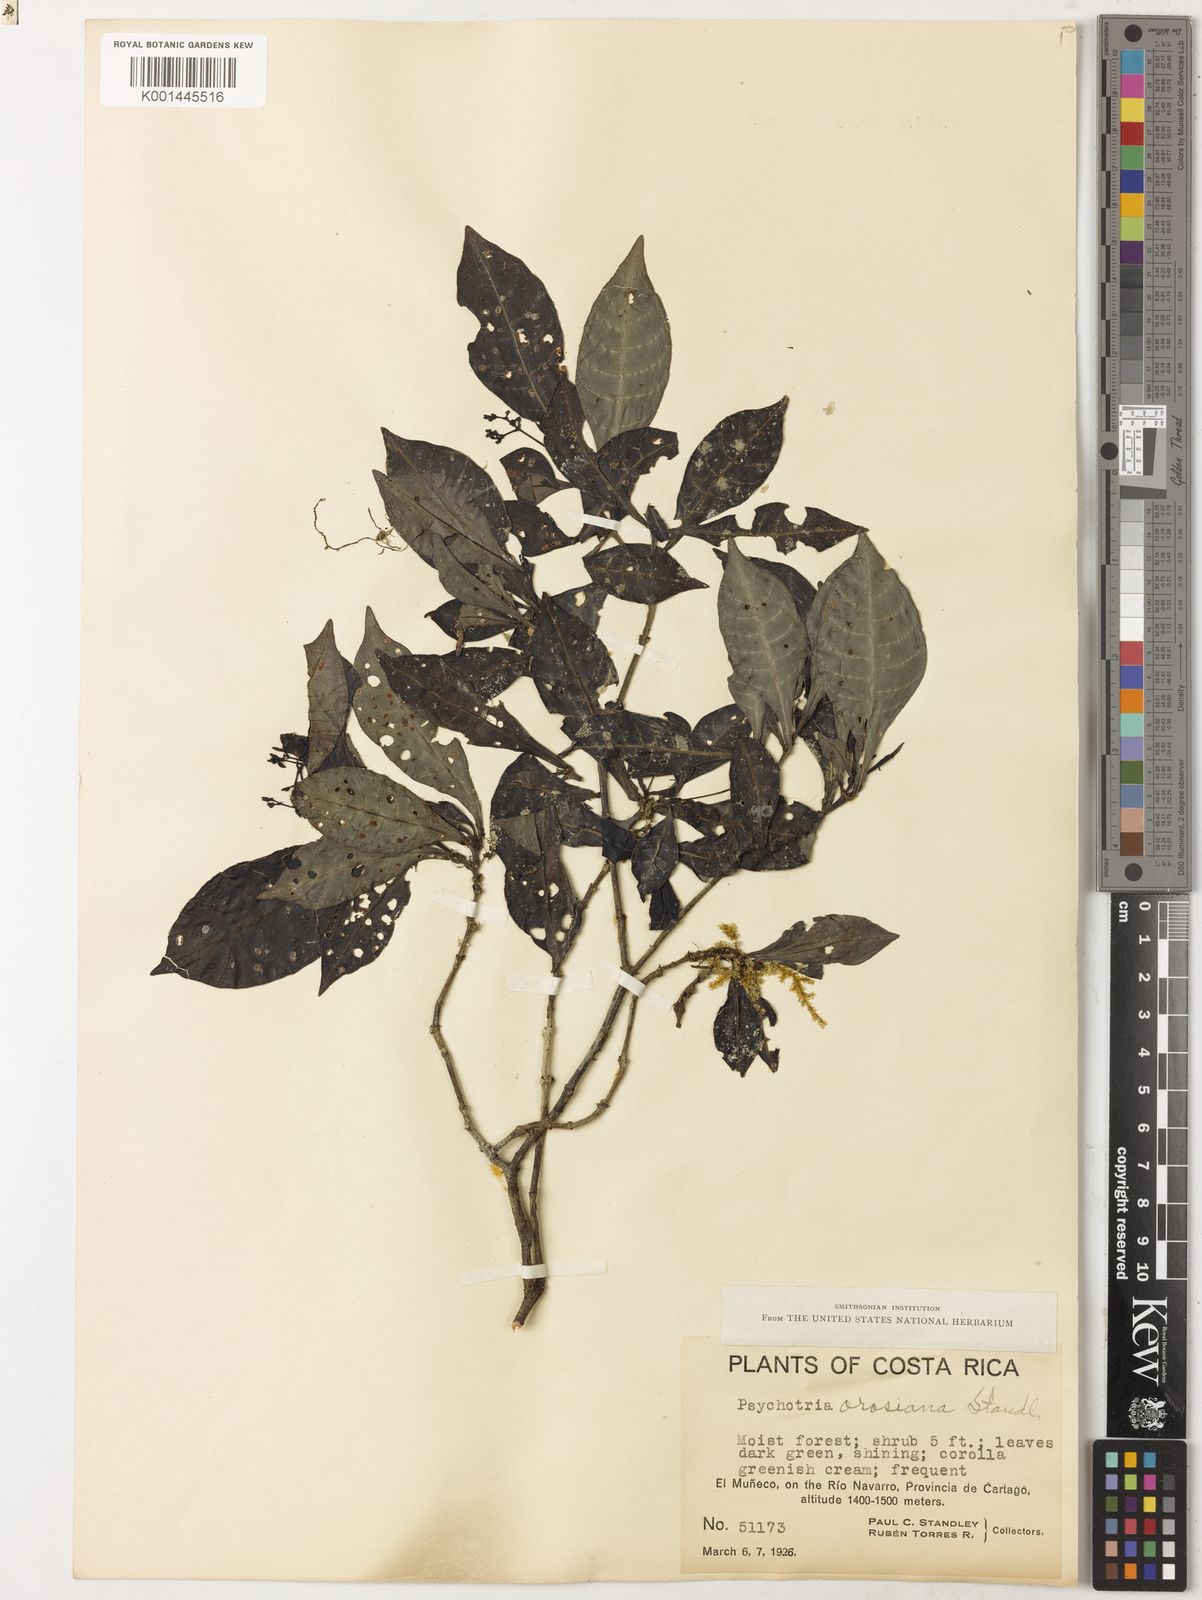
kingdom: Plantae
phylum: Tracheophyta
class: Magnoliopsida
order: Gentianales
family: Rubiaceae
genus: Psychotria
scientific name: Psychotria orosiana
